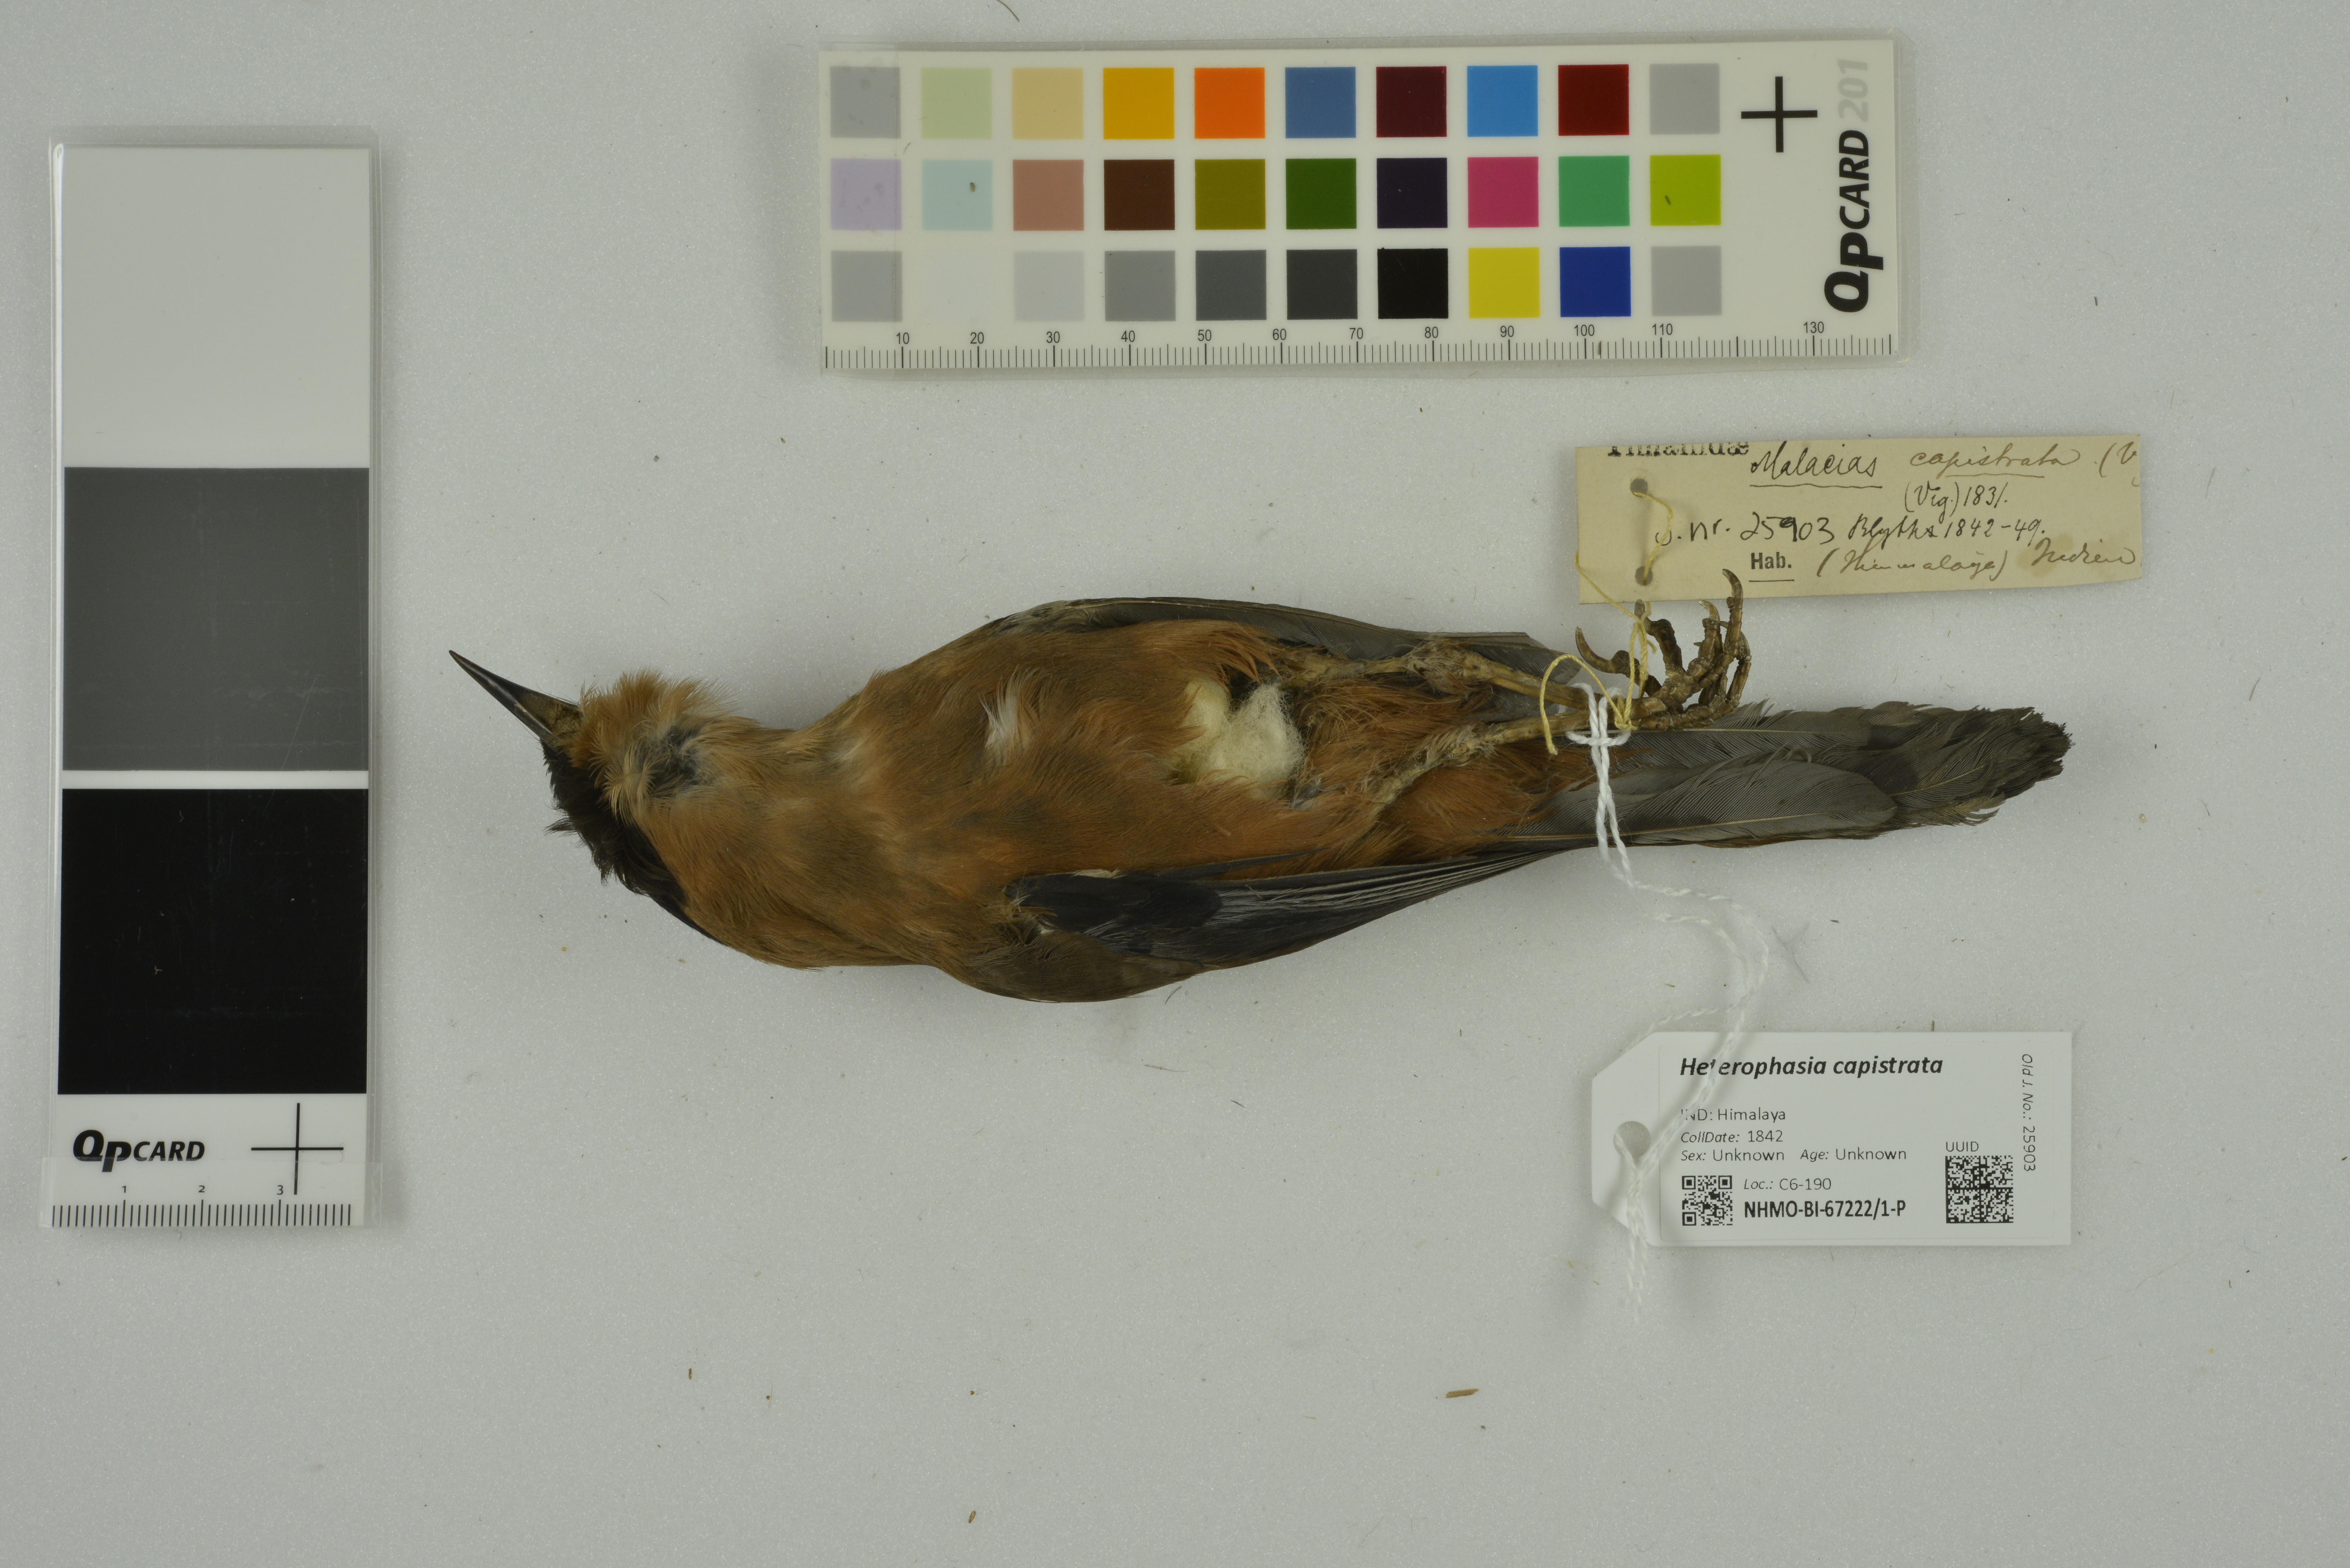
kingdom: Animalia
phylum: Chordata
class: Aves
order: Passeriformes
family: Leiothrichidae
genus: Heterophasia
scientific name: Heterophasia capistrata
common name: Rufous sibia
